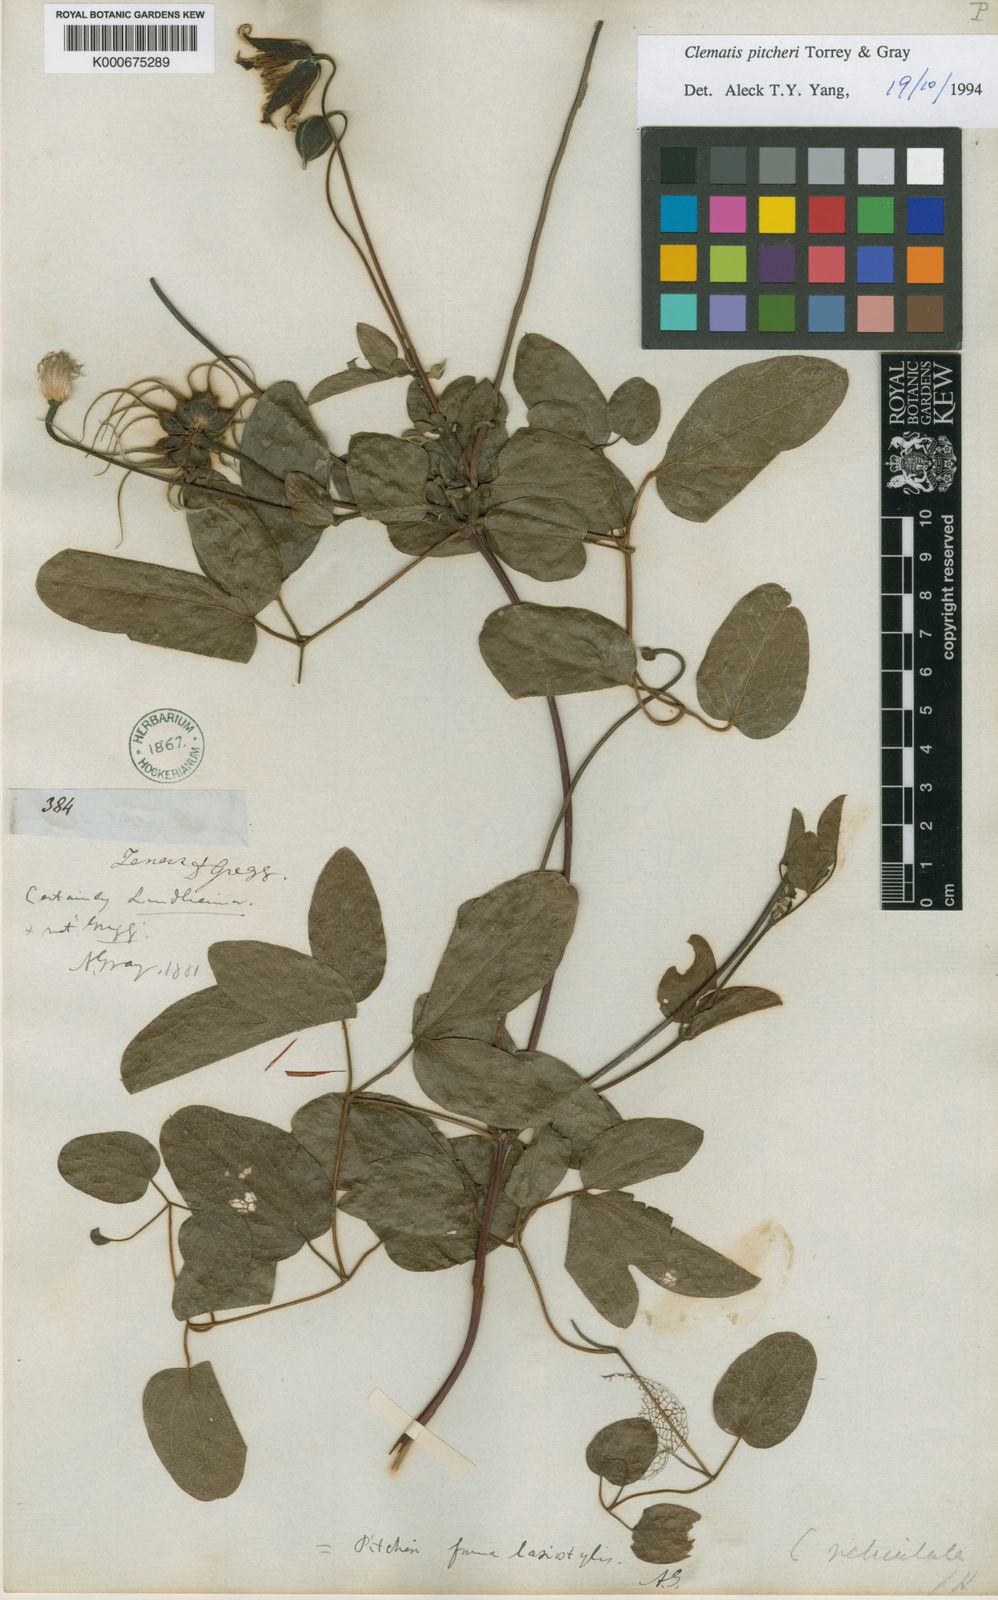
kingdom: Plantae
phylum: Tracheophyta
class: Magnoliopsida
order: Ranunculales
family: Ranunculaceae
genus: Clematis
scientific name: Clematis pitcheri
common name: Bellflower clematis
